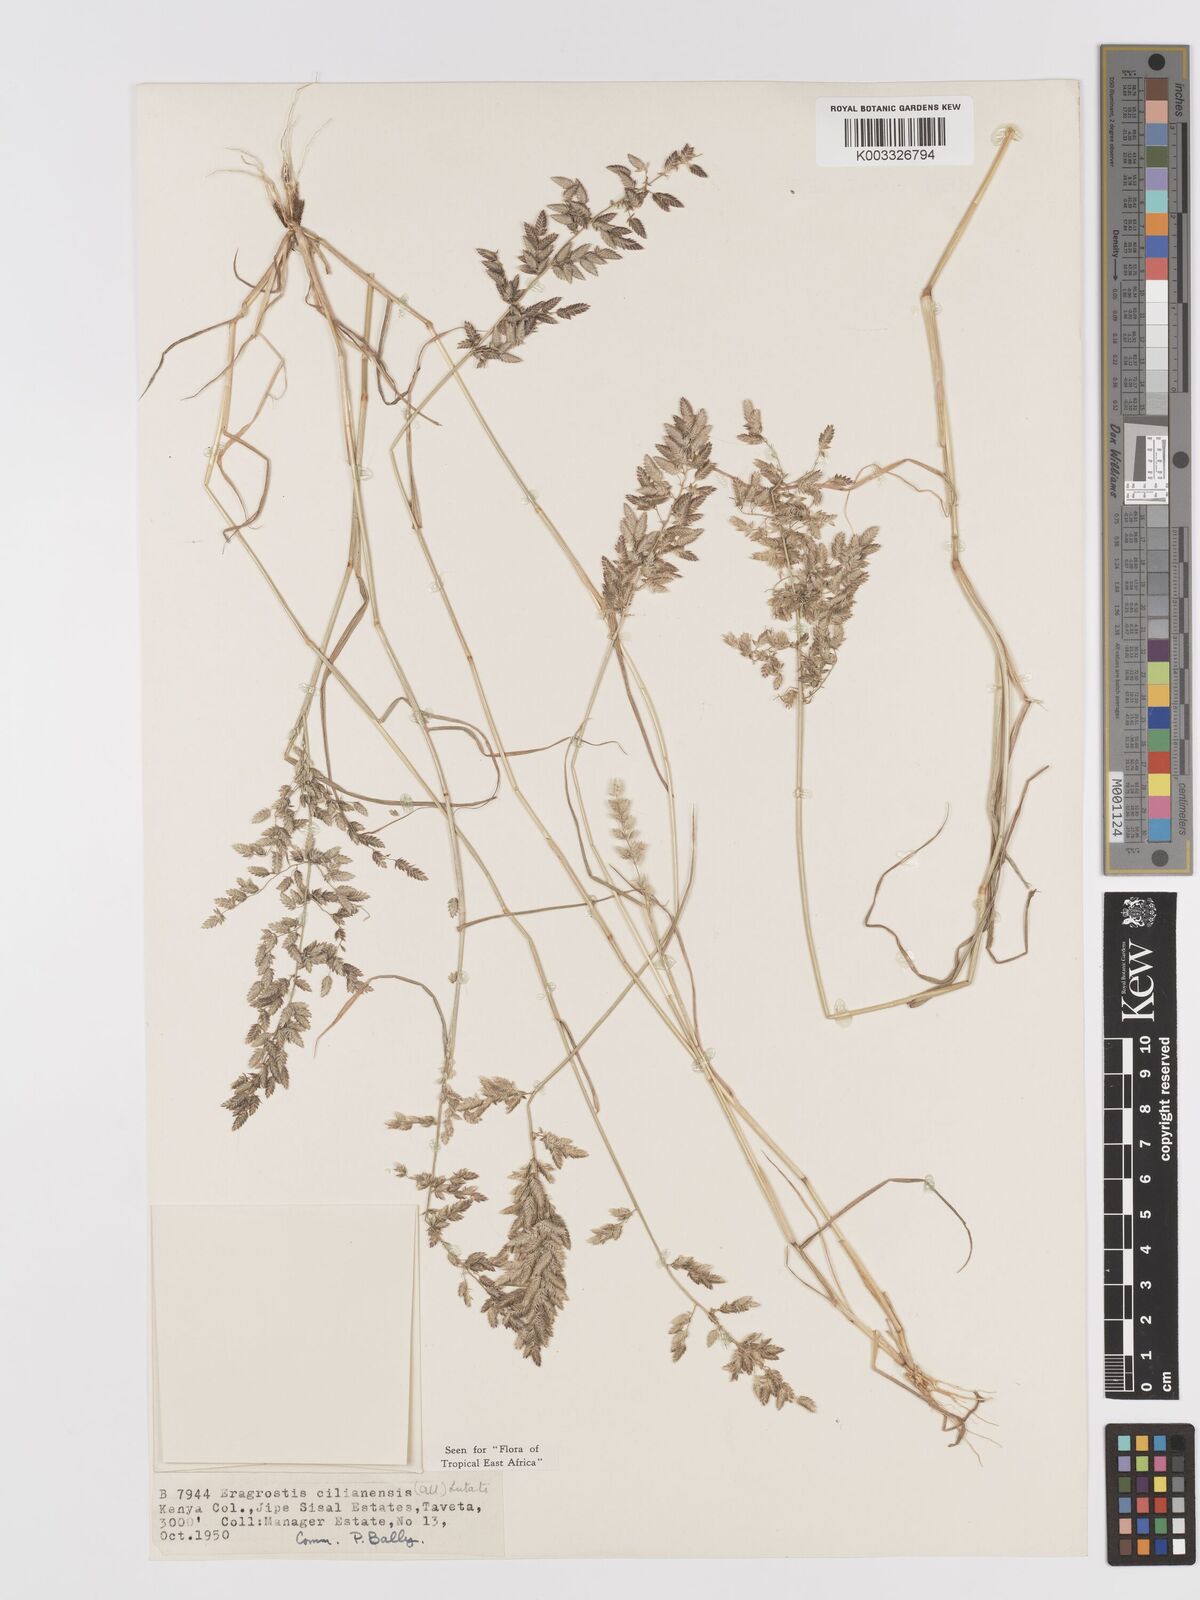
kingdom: Plantae
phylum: Tracheophyta
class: Liliopsida
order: Poales
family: Poaceae
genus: Eragrostis
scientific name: Eragrostis cilianensis
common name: Stinkgrass
